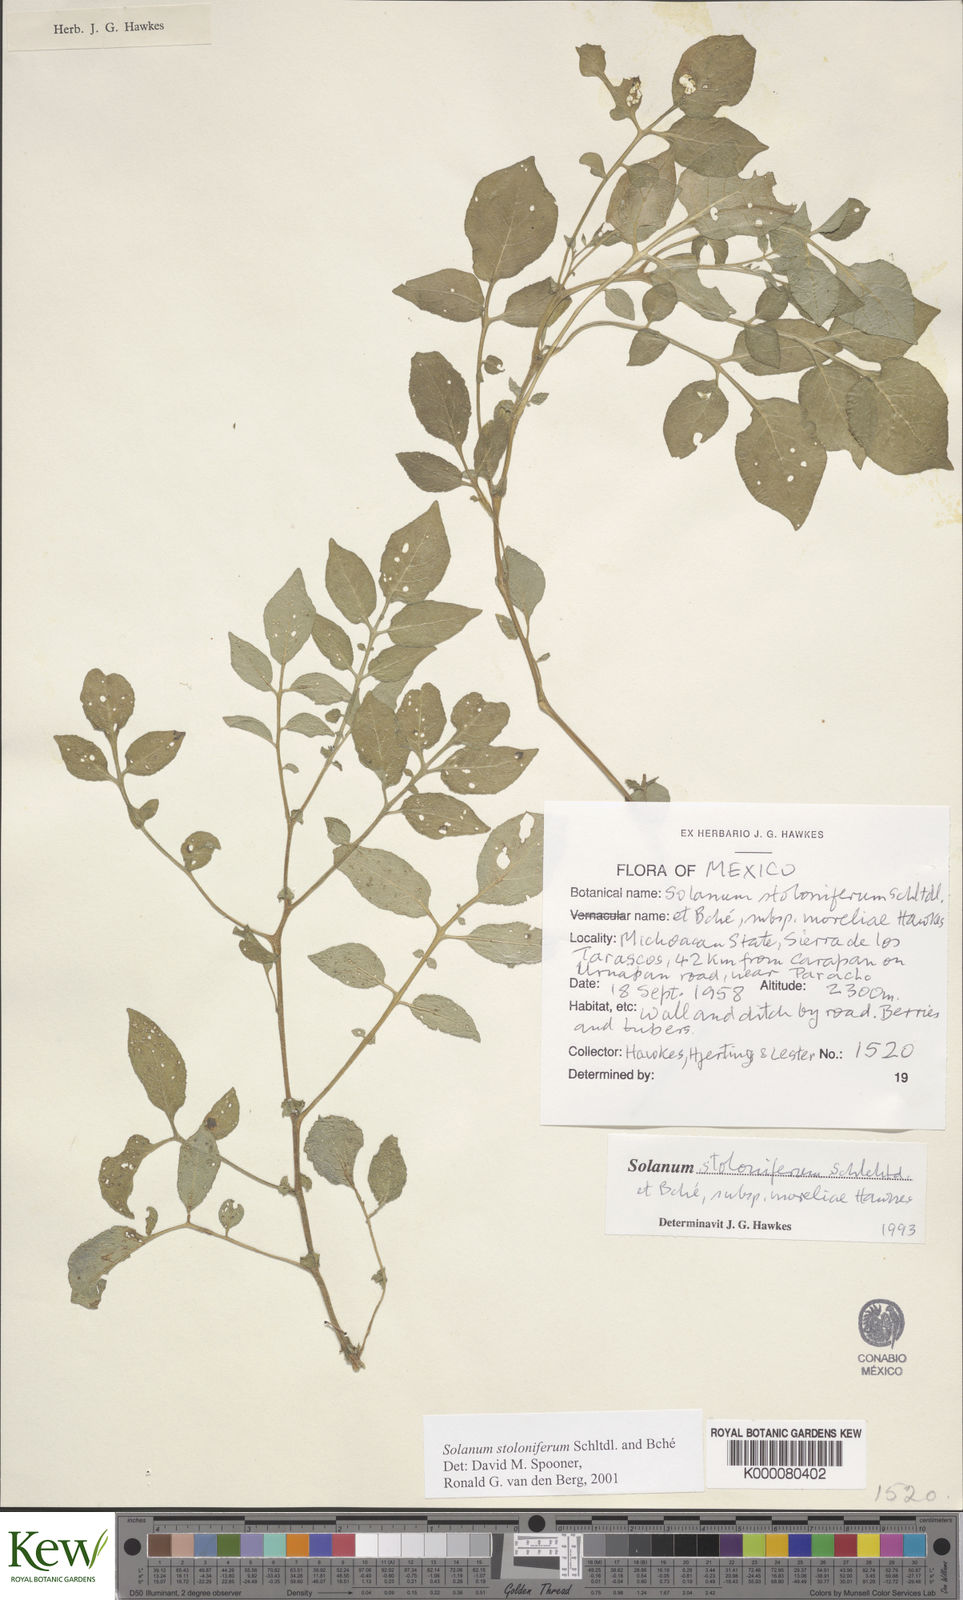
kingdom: Plantae
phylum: Tracheophyta
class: Magnoliopsida
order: Solanales
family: Solanaceae
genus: Solanum
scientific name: Solanum stoloniferum
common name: Fendler's nighshade
